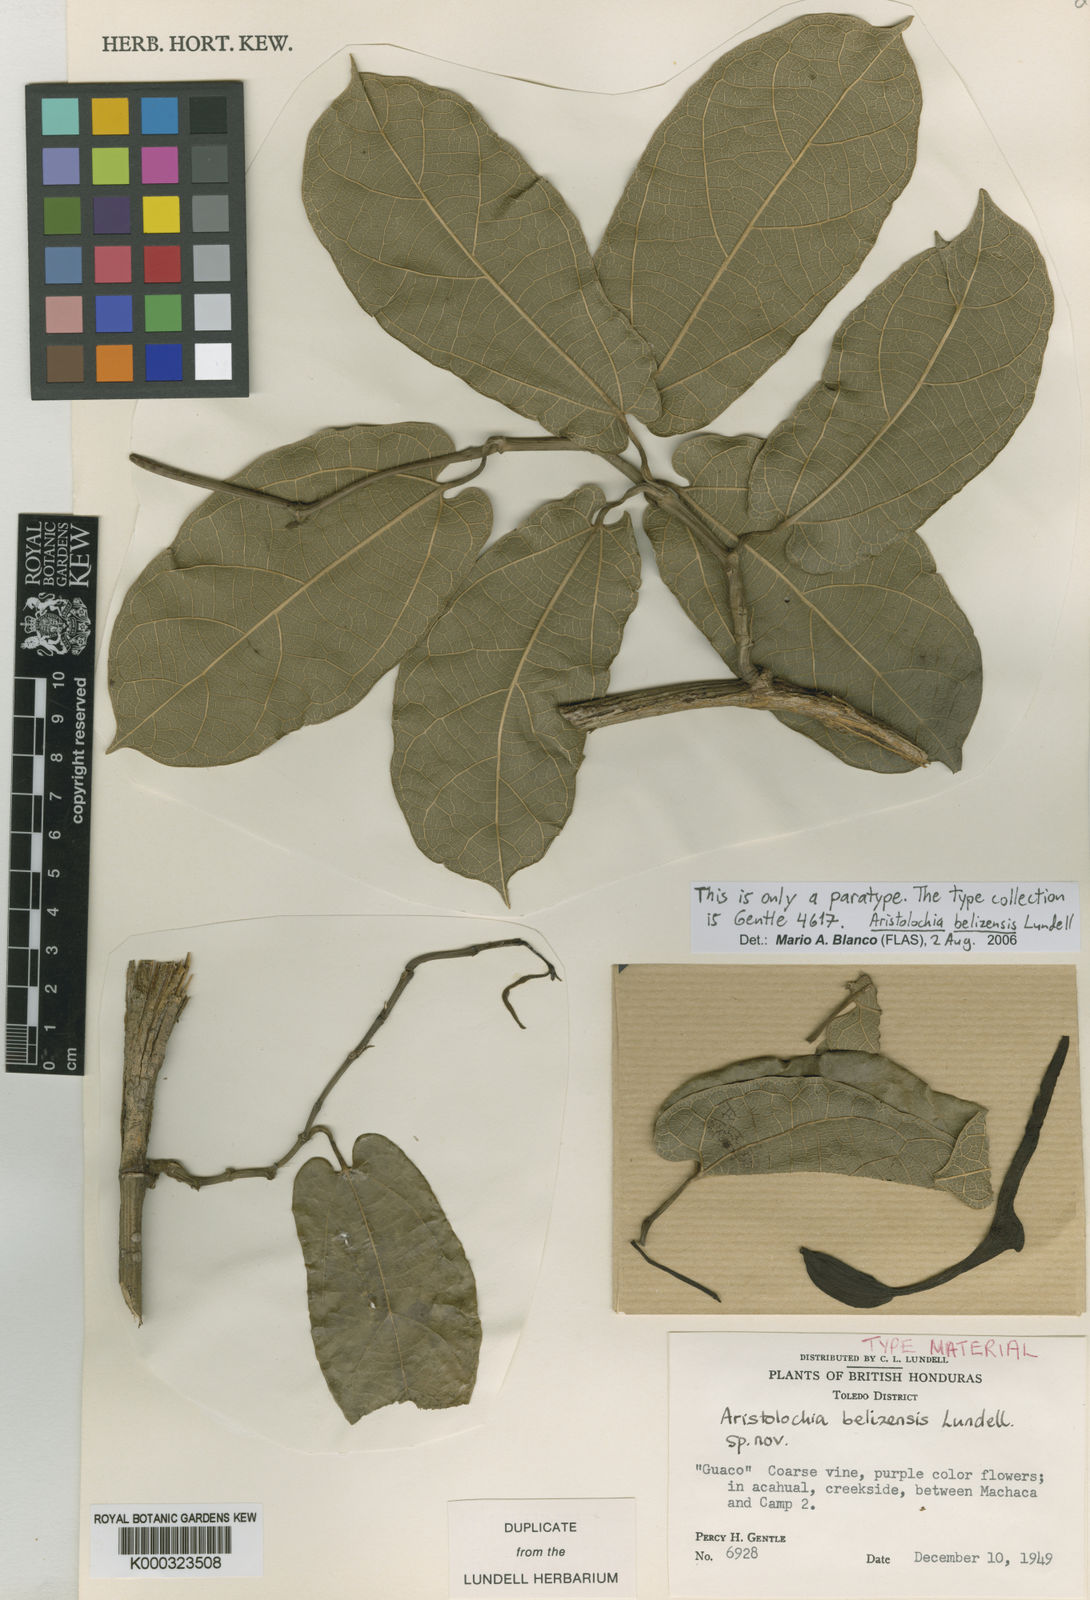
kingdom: Plantae
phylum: Tracheophyta
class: Magnoliopsida
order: Piperales
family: Aristolochiaceae
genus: Aristolochia
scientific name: Aristolochia ovalifolia
